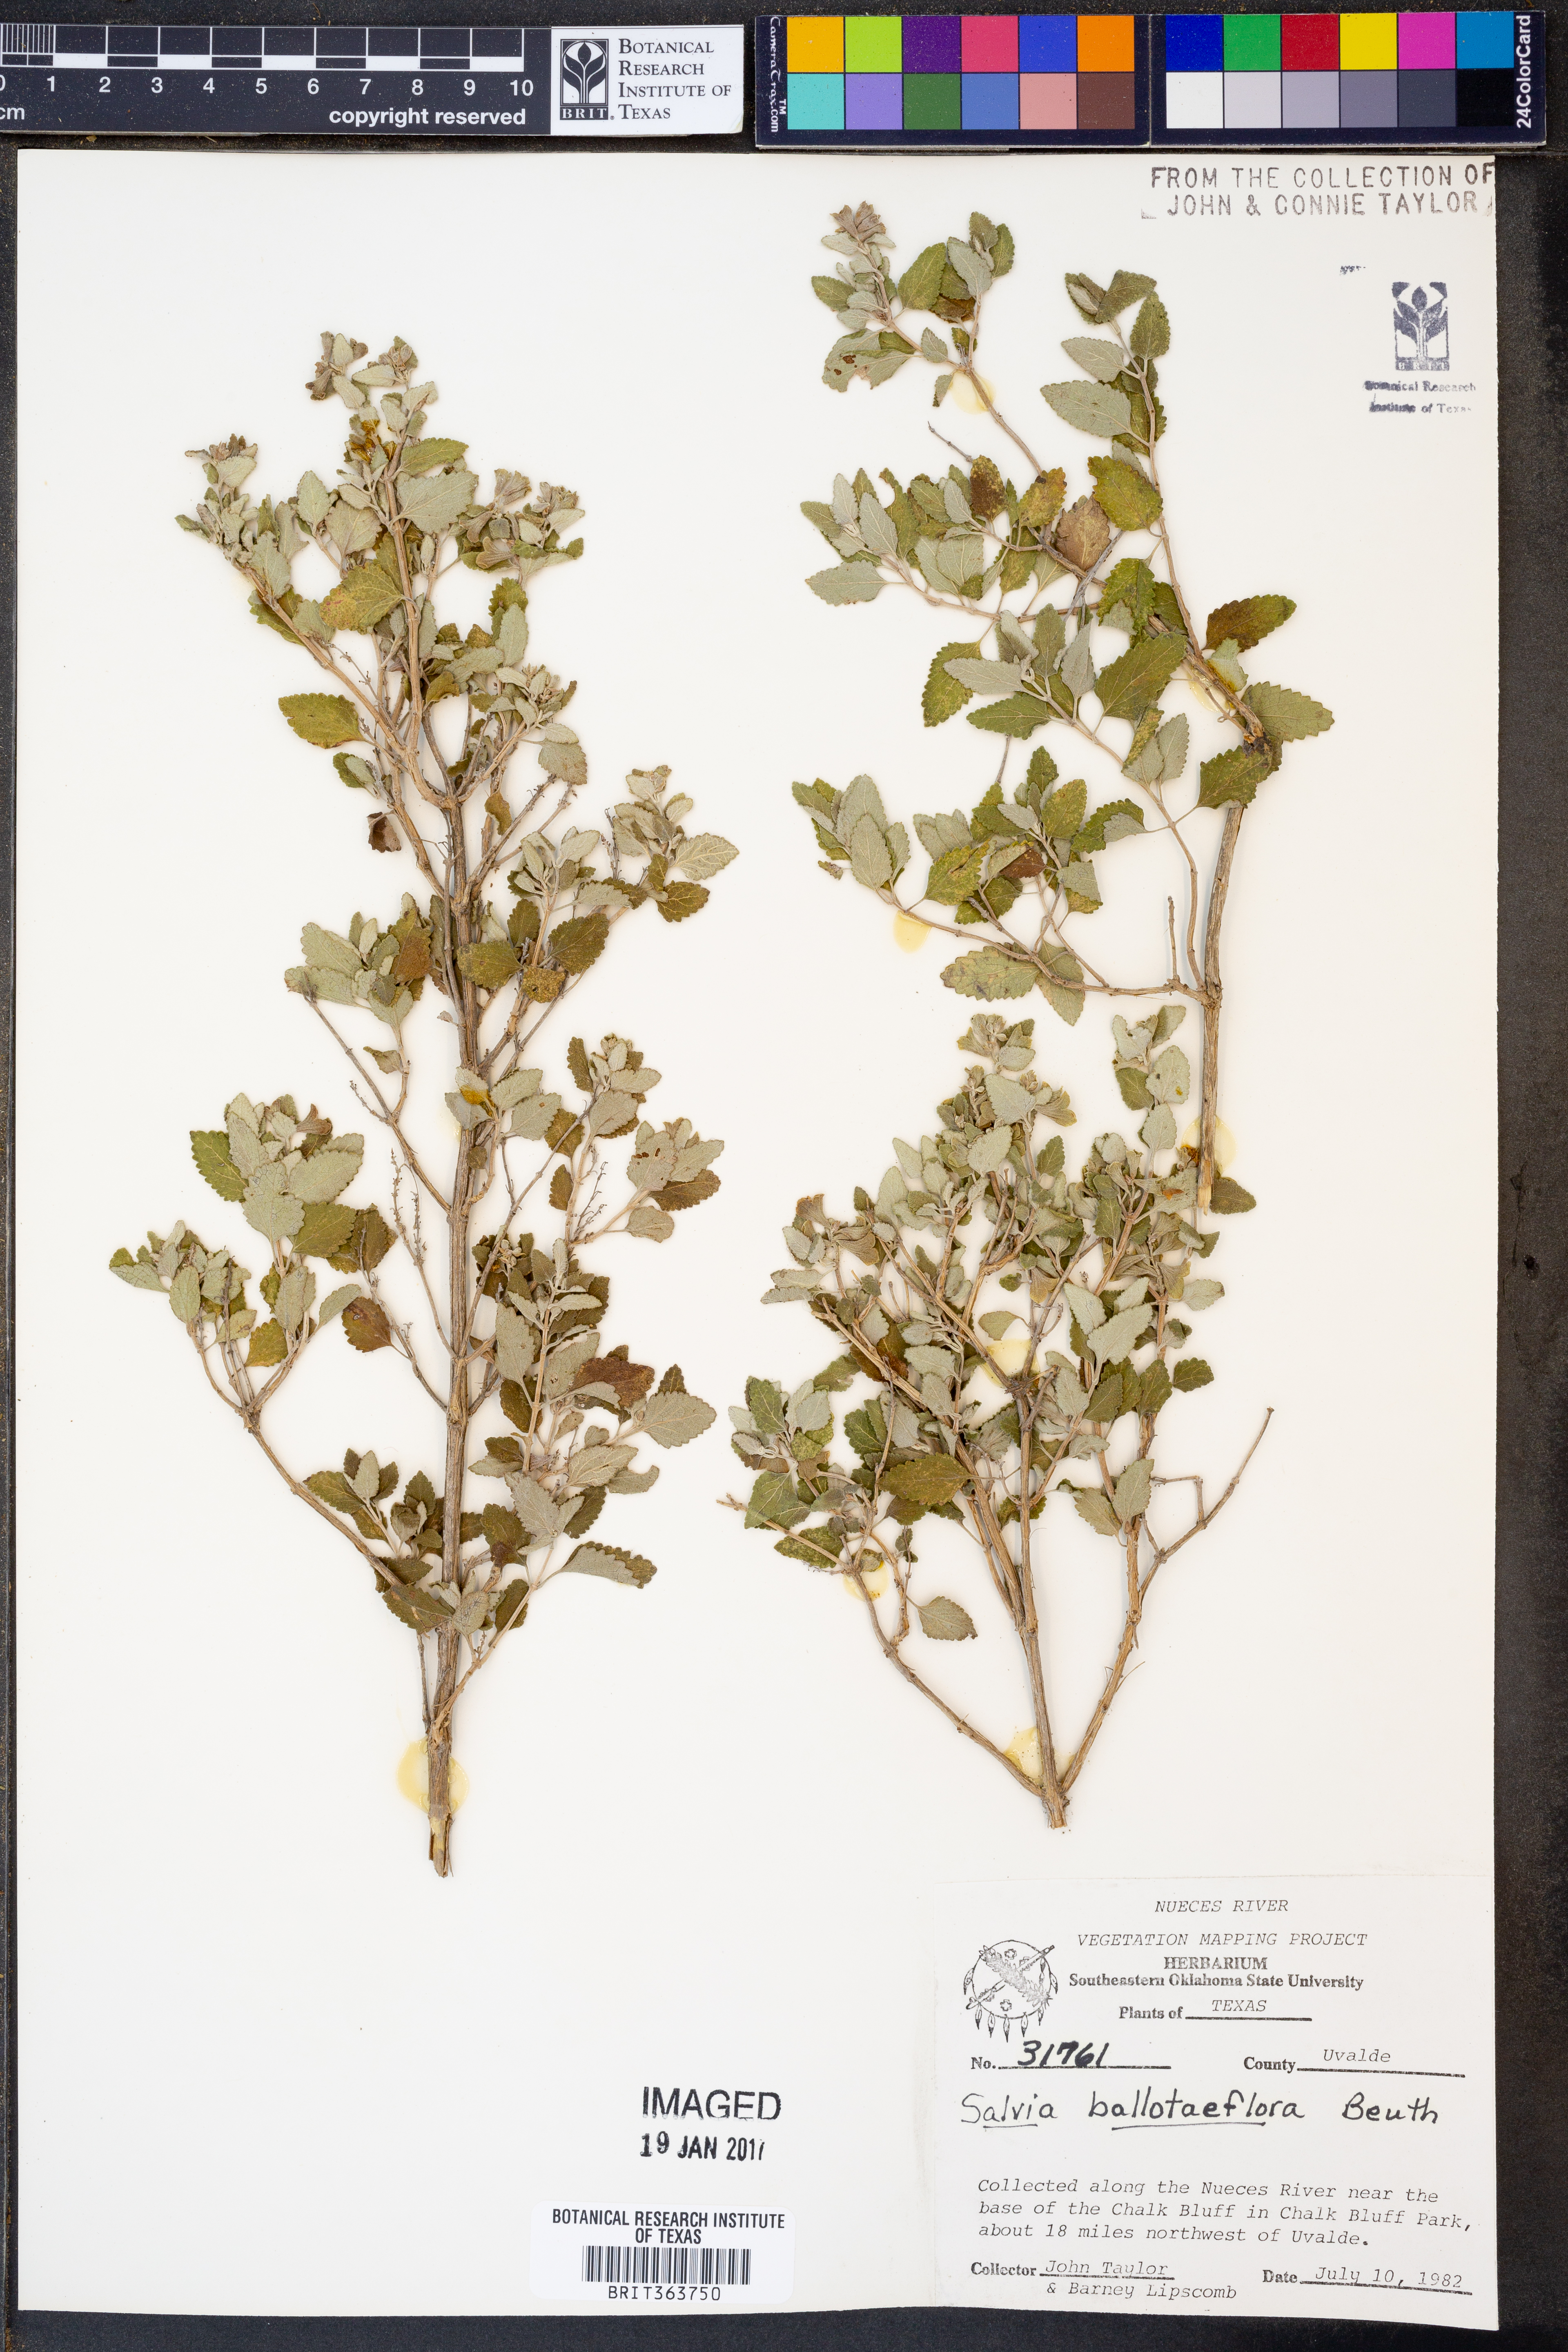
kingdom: Plantae
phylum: Tracheophyta
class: Magnoliopsida
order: Lamiales
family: Lamiaceae
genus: Salvia
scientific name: Salvia ballotiflora
